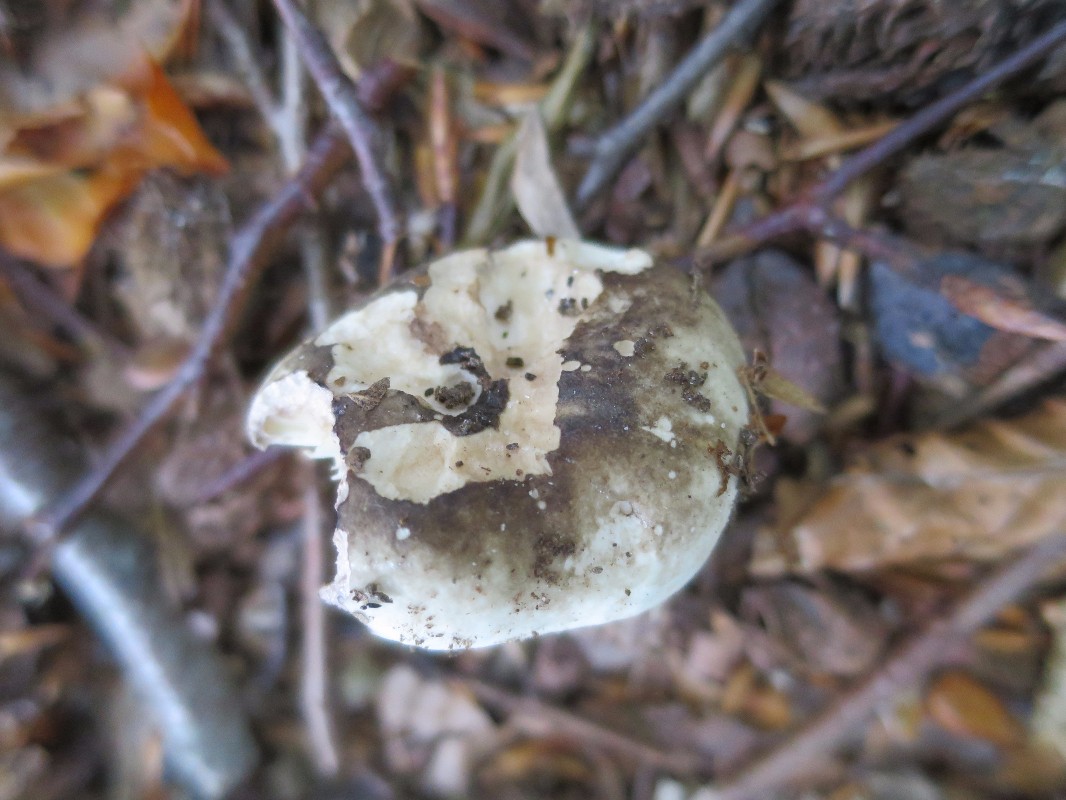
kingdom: Fungi
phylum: Basidiomycota
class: Agaricomycetes
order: Russulales
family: Russulaceae
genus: Russula
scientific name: Russula adusta
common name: sværtende skørhat
